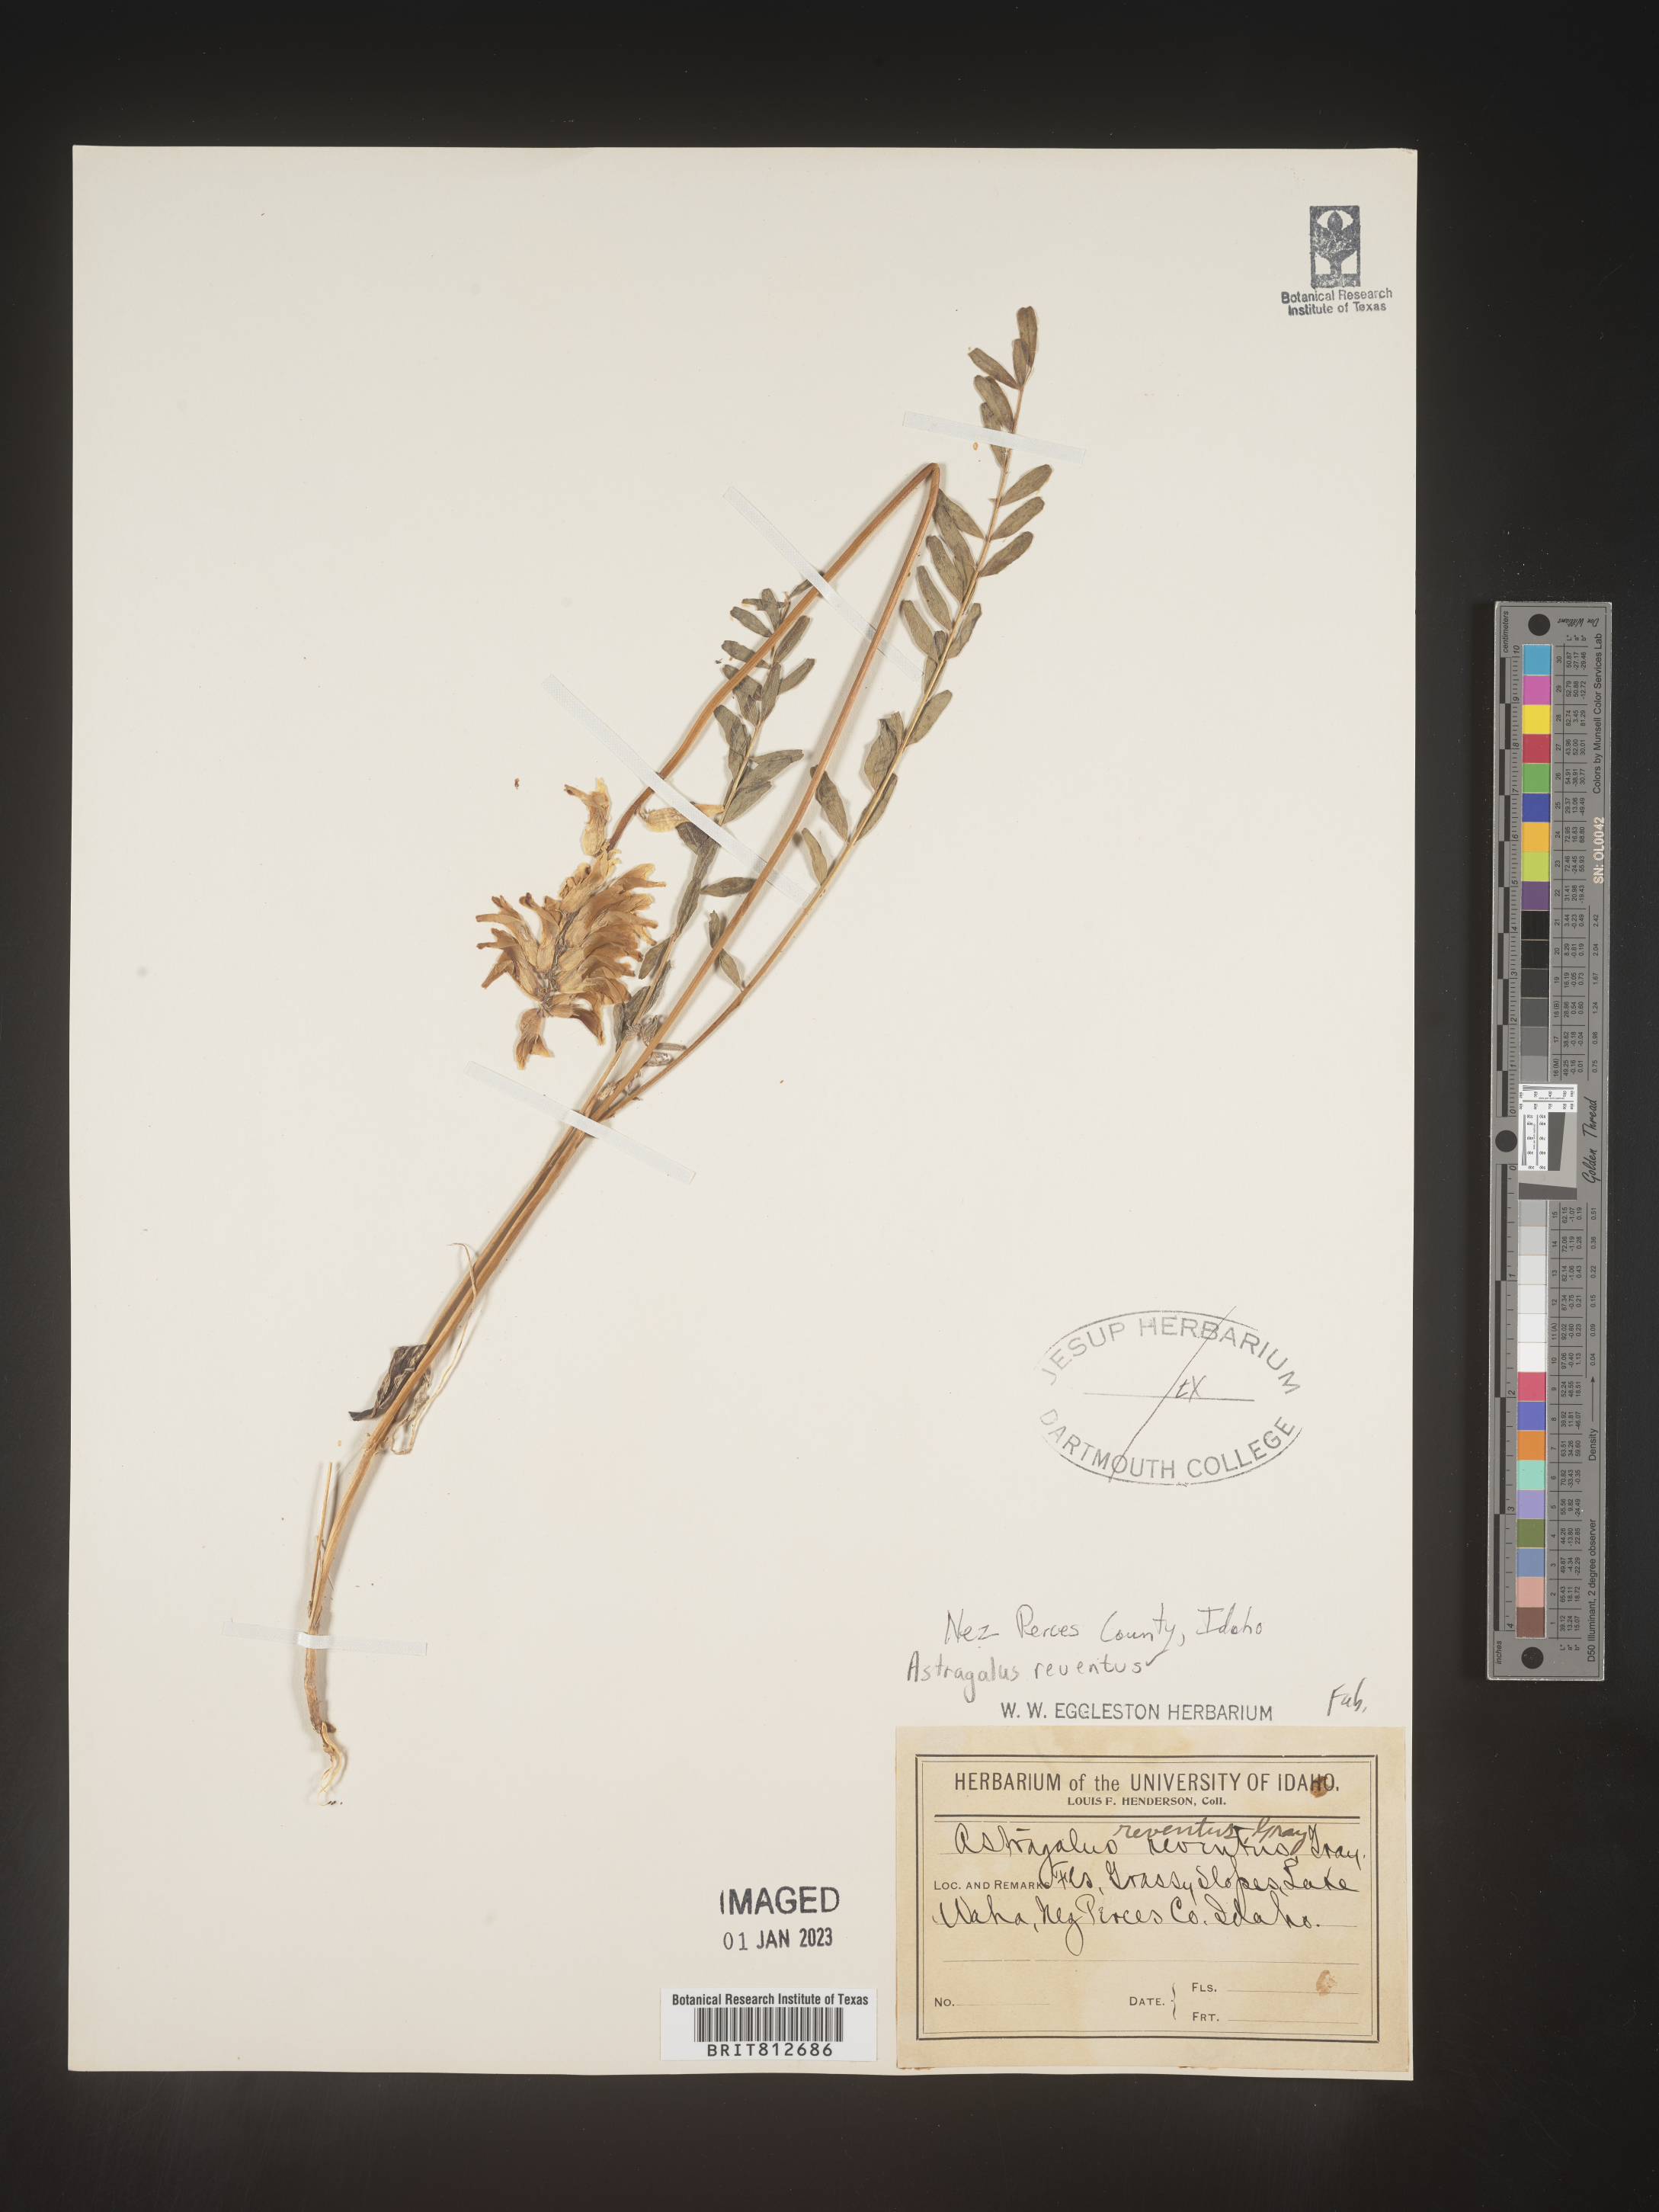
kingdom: Plantae
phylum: Tracheophyta
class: Magnoliopsida
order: Fabales
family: Fabaceae
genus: Astragalus
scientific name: Astragalus
